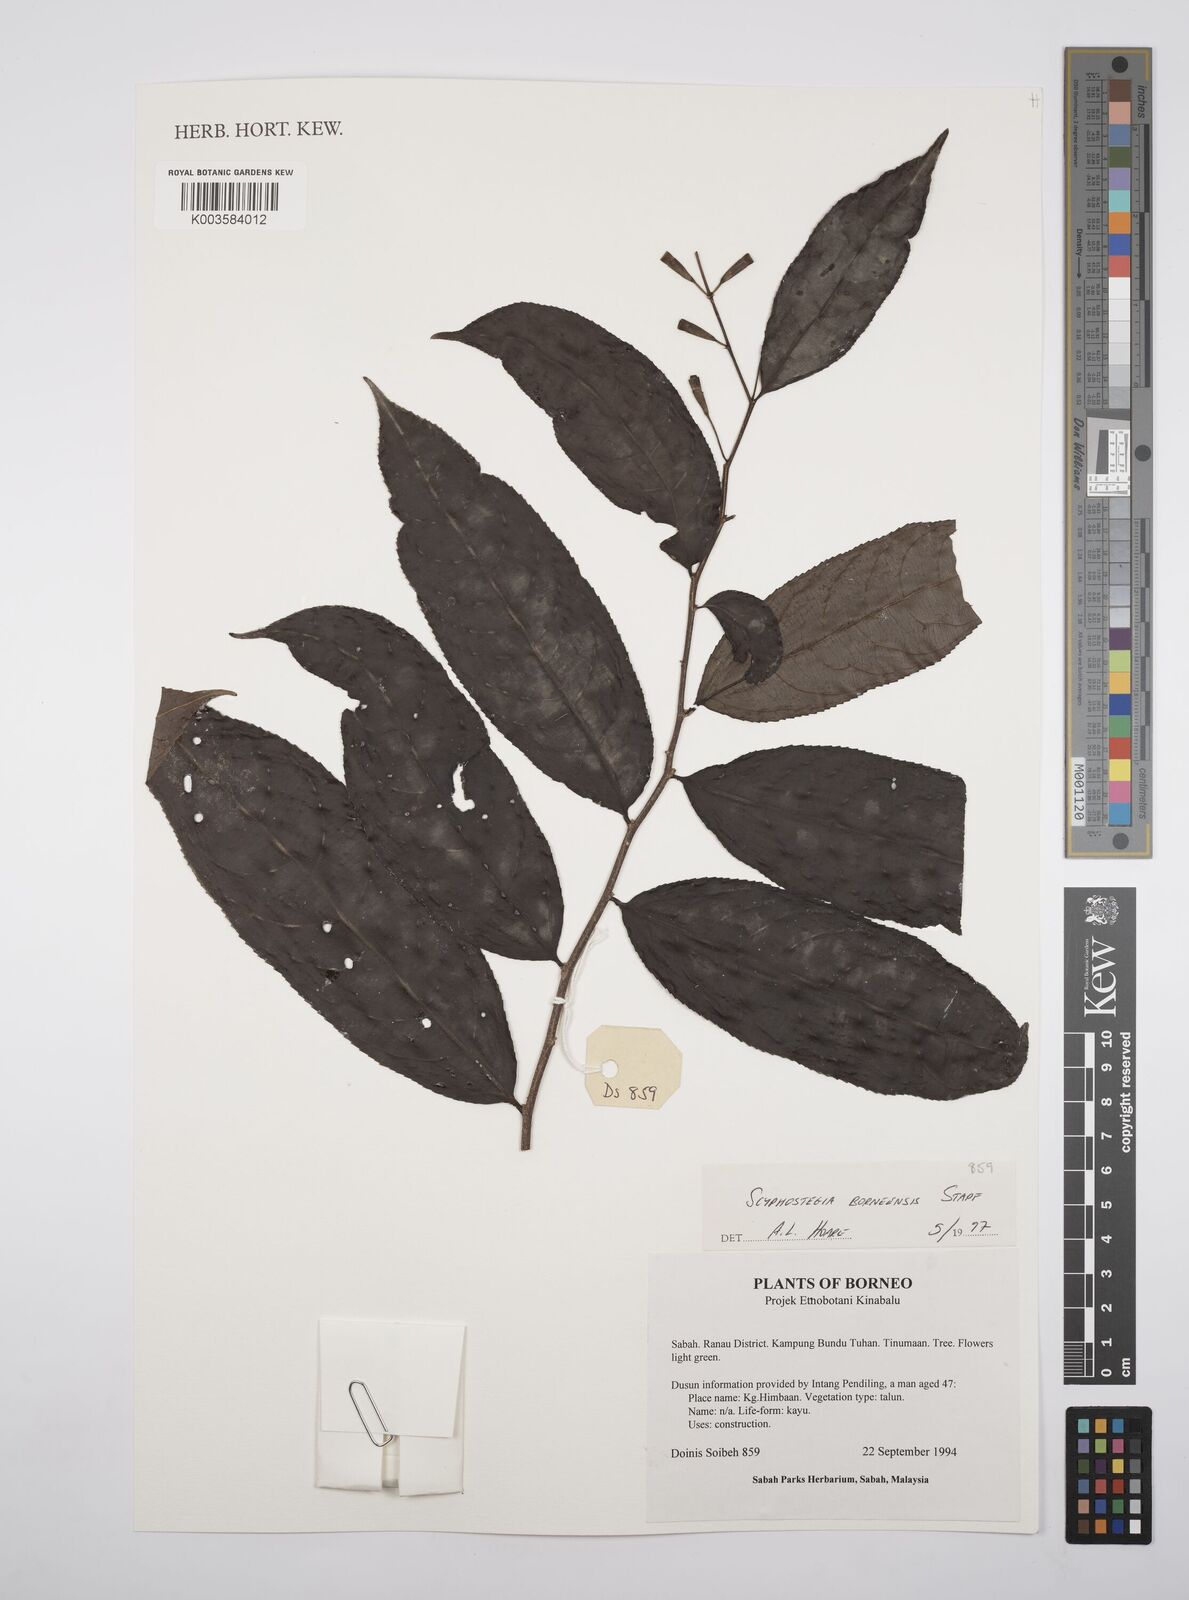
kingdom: Plantae
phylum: Tracheophyta
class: Magnoliopsida
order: Malpighiales
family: Salicaceae
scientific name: Salicaceae
